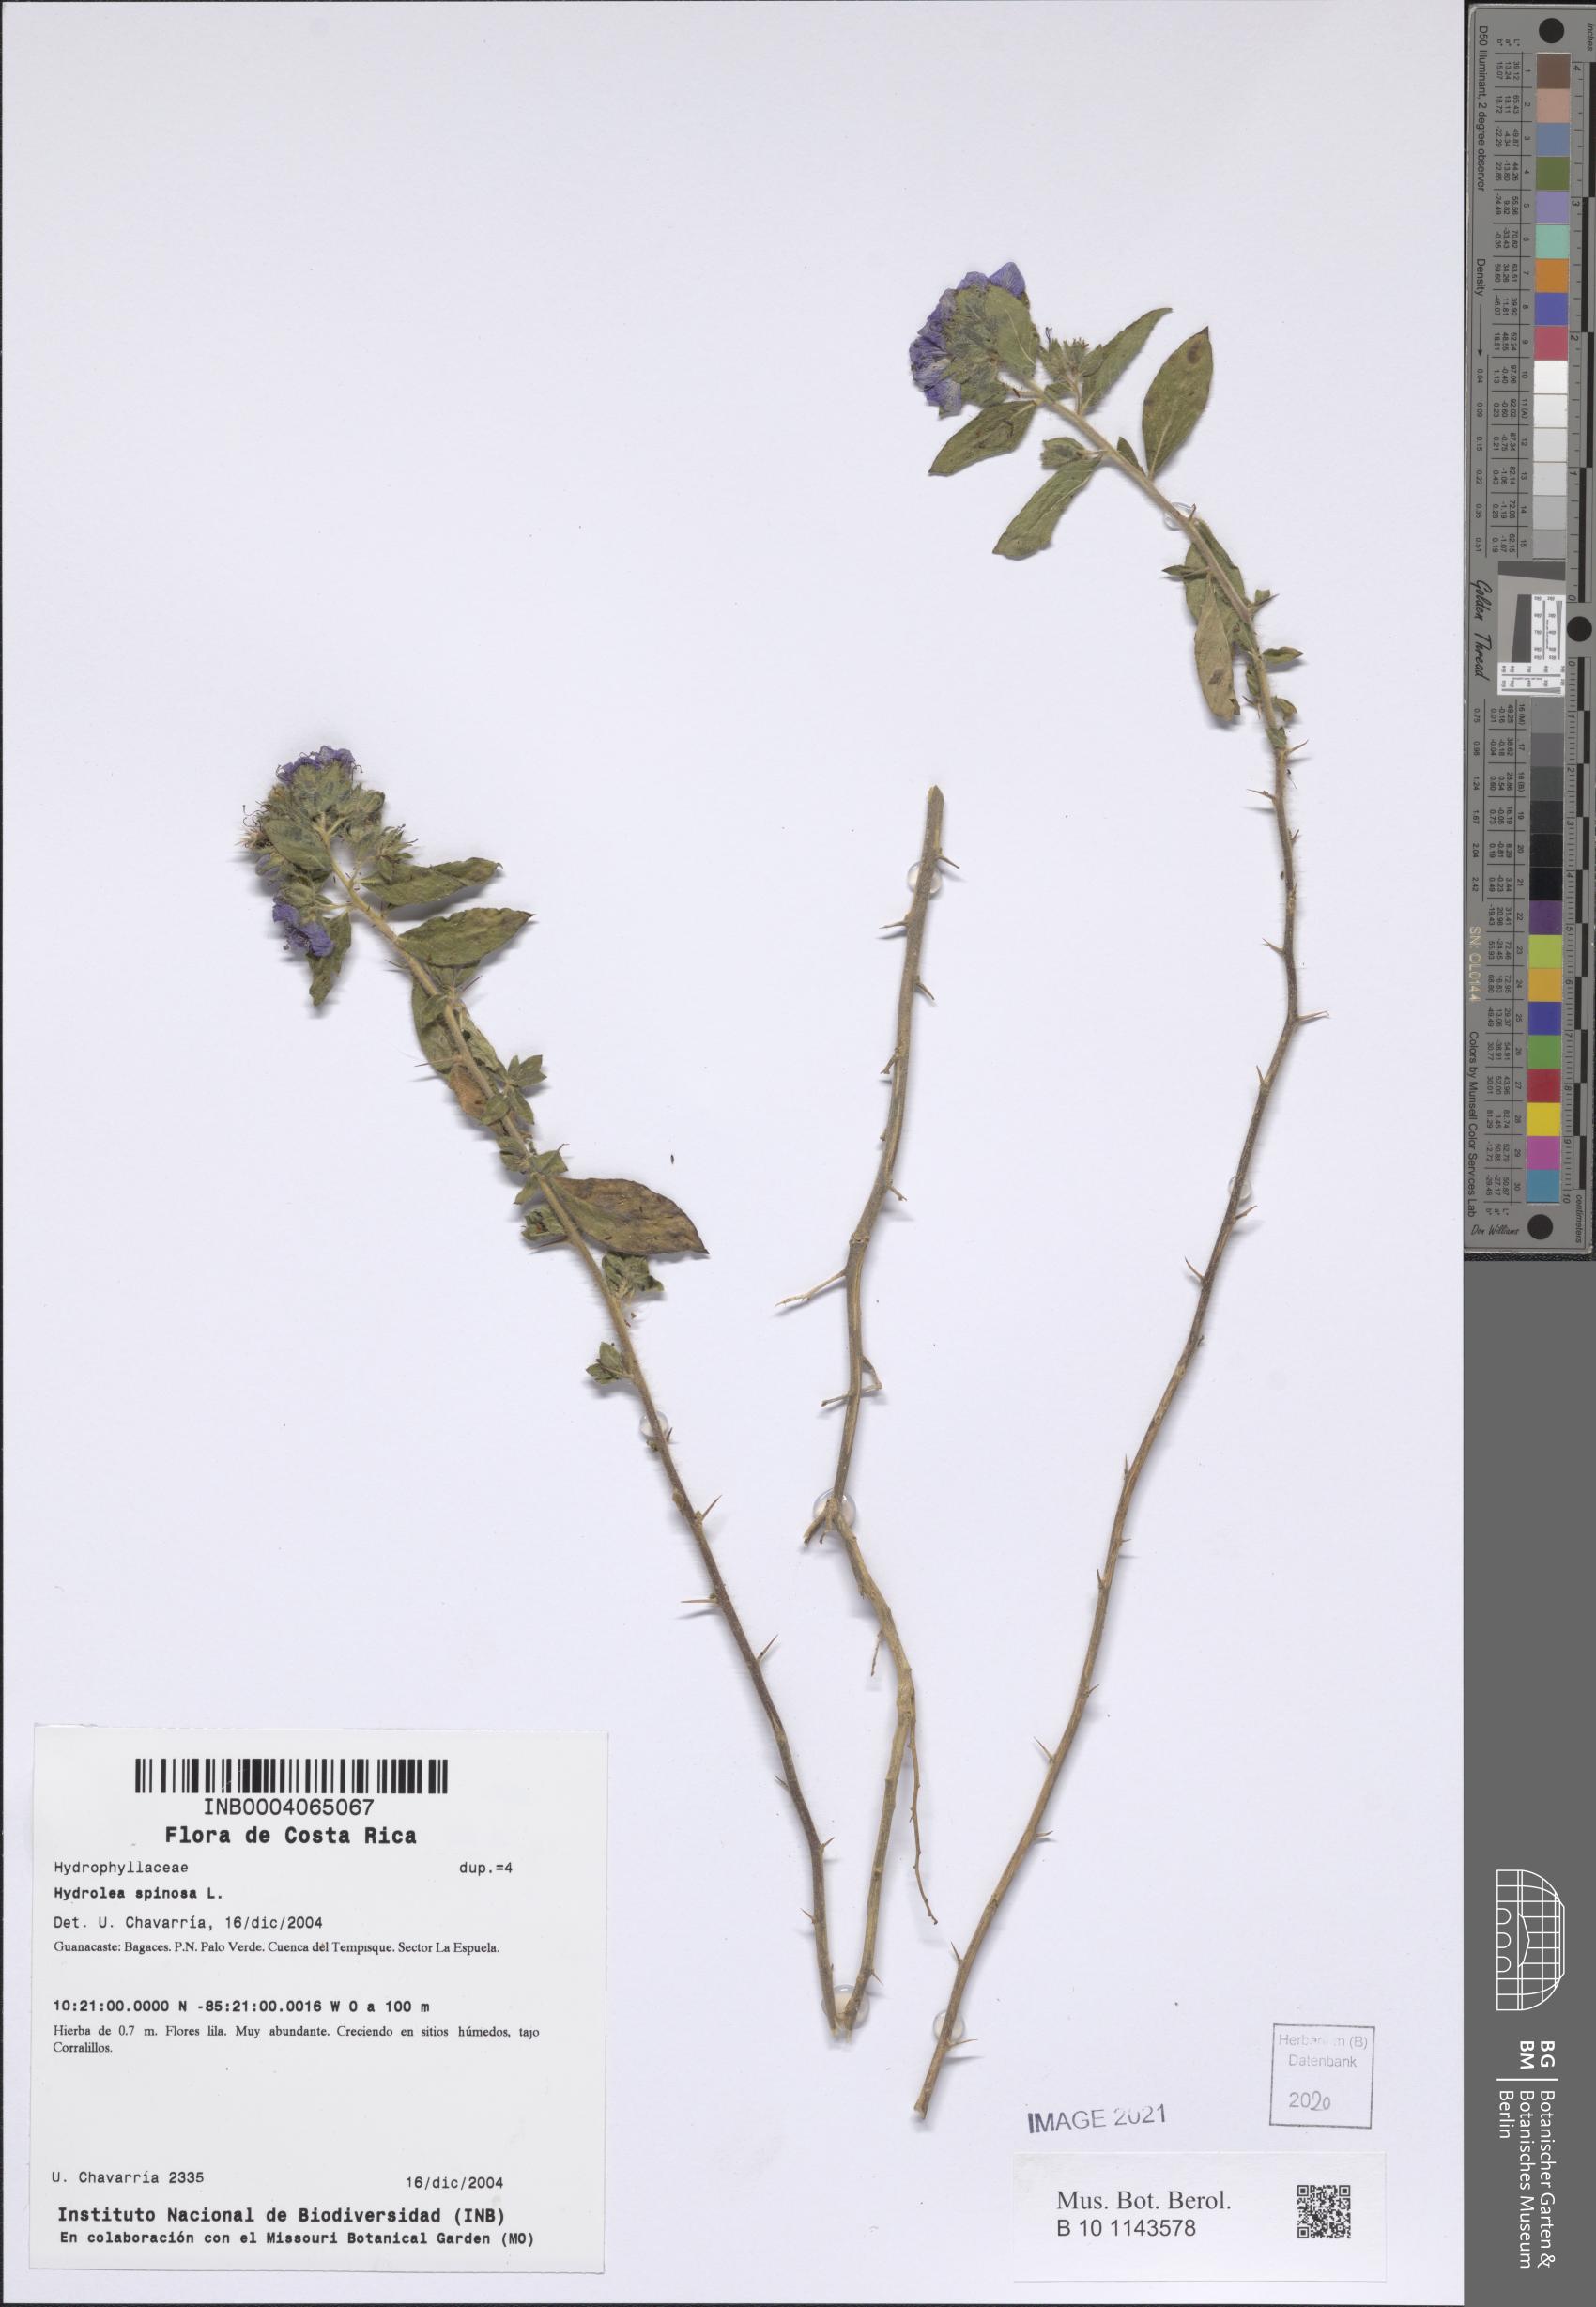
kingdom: Plantae
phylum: Tracheophyta
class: Magnoliopsida
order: Solanales
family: Hydroleaceae
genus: Hydrolea
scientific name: Hydrolea spinosa
